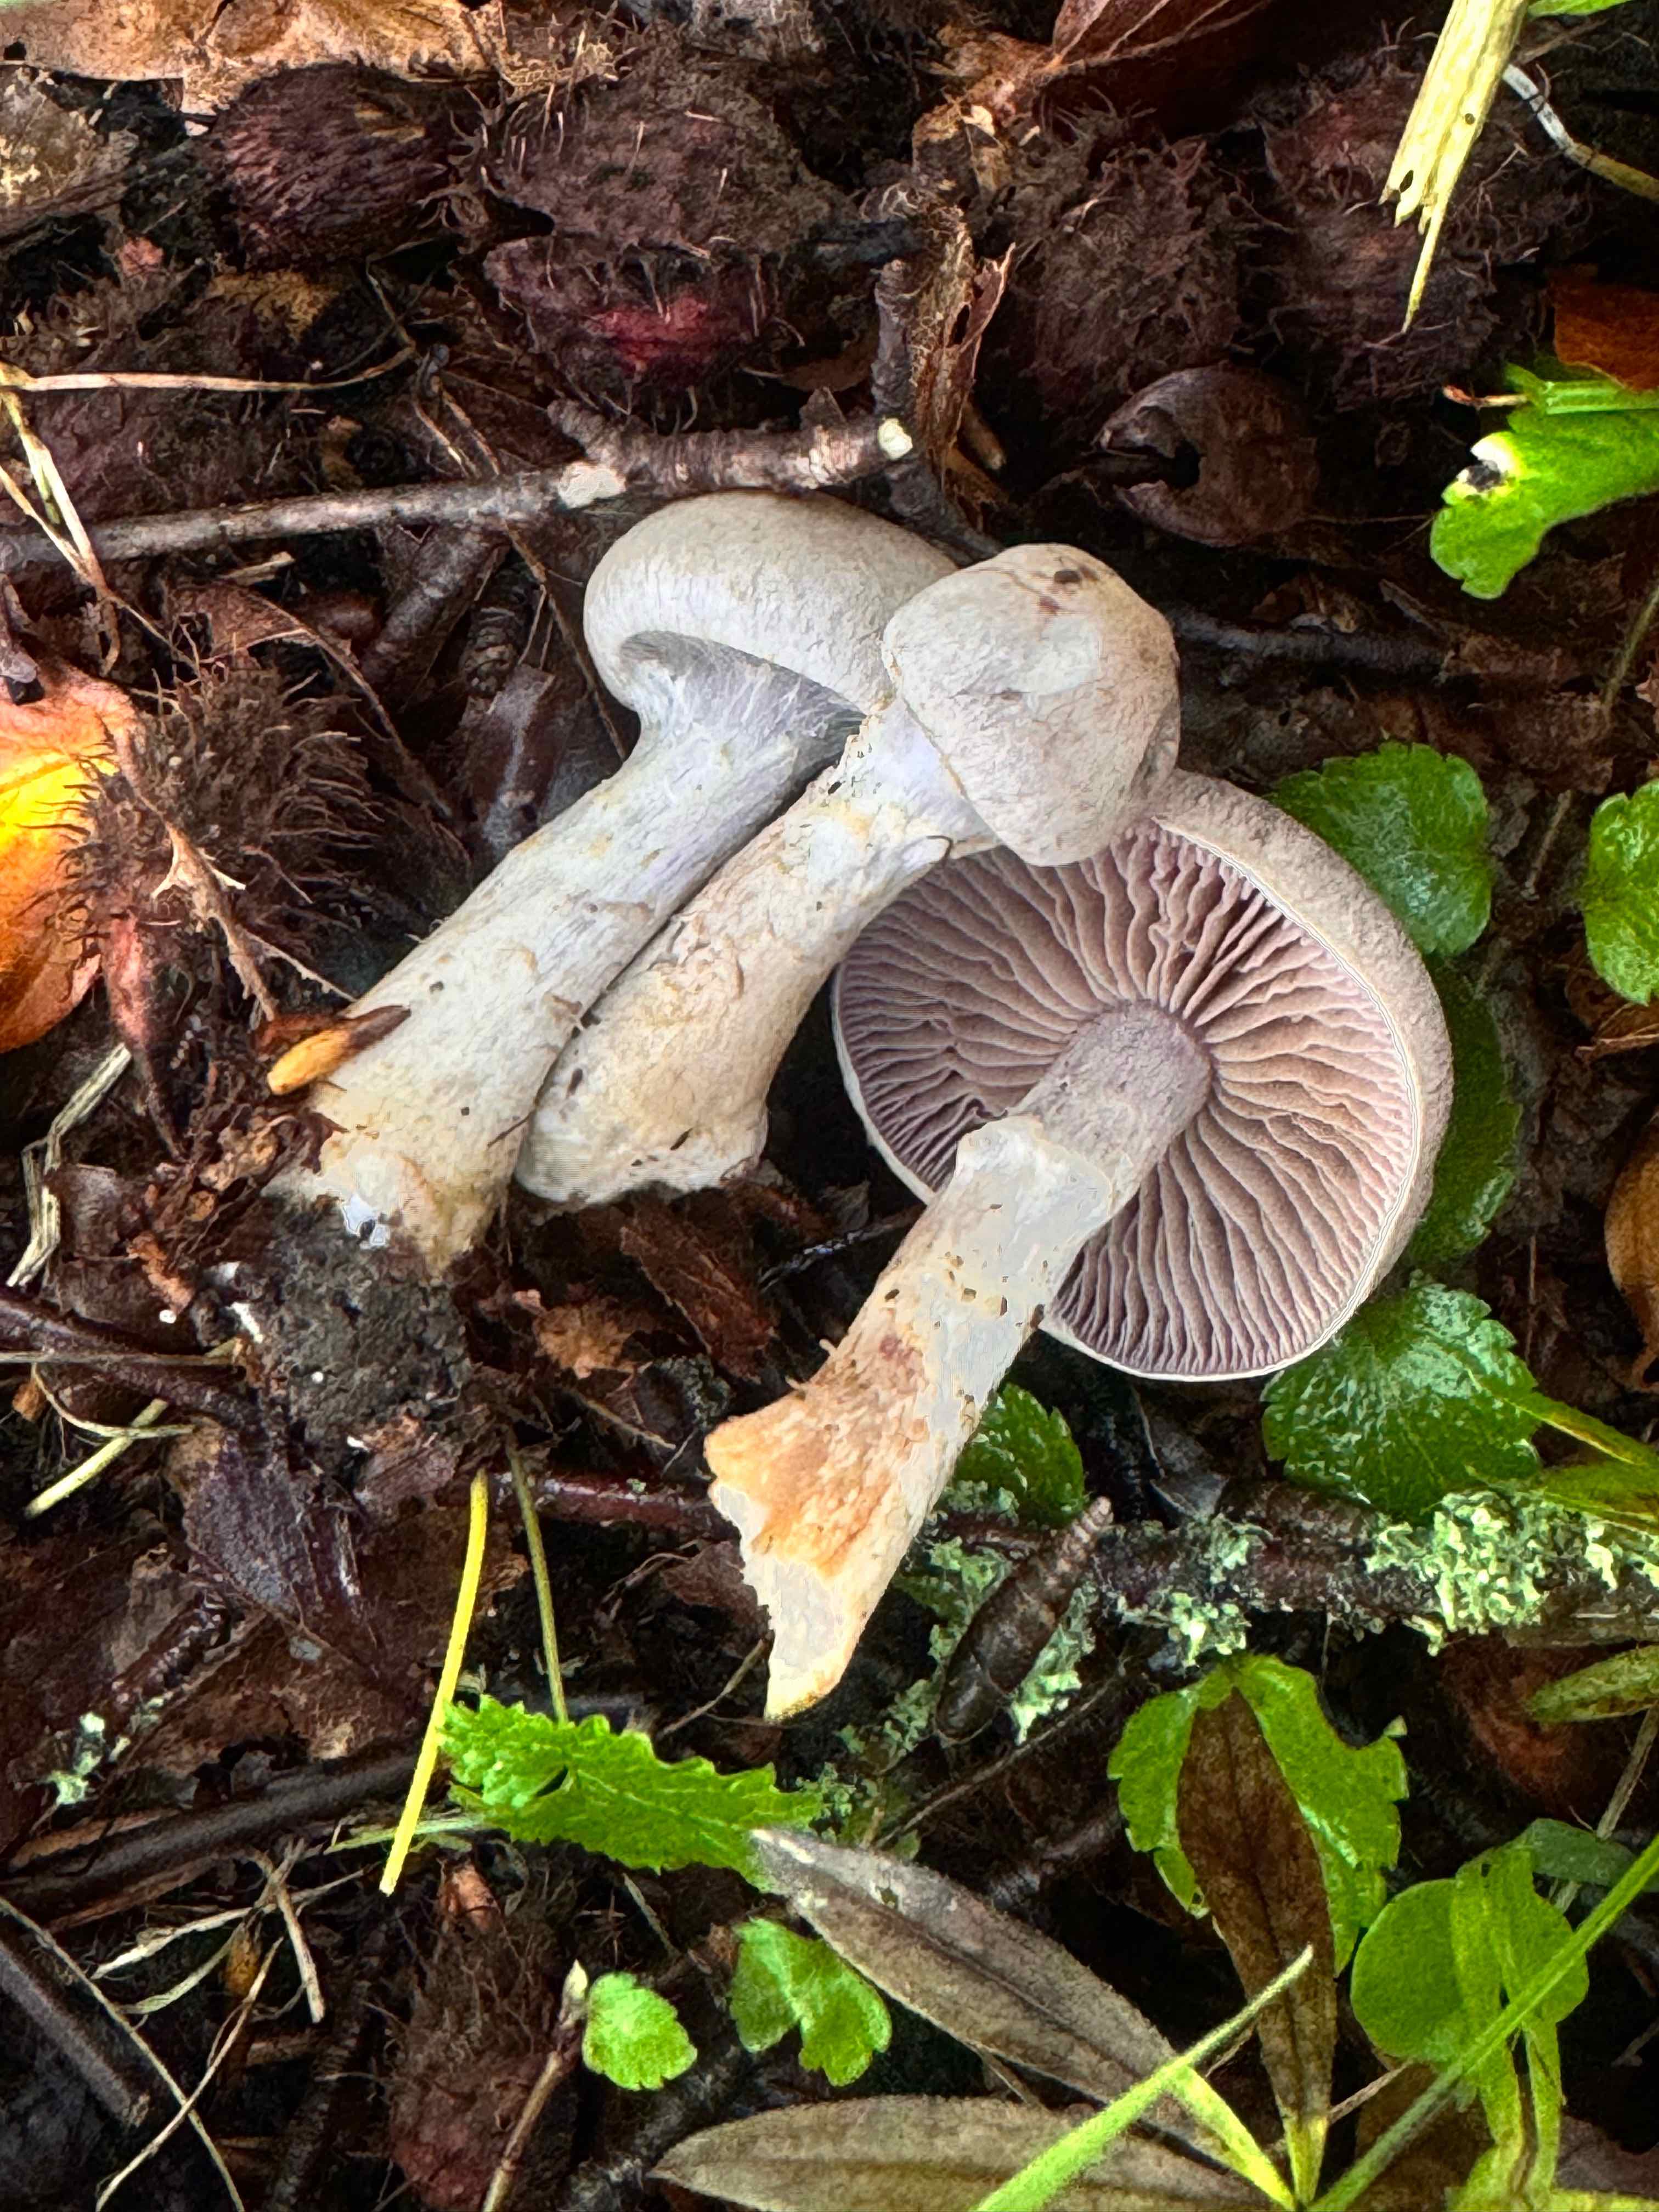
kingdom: Fungi
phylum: Basidiomycota
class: Agaricomycetes
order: Agaricales
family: Cortinariaceae
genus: Cortinarius
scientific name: Cortinarius
